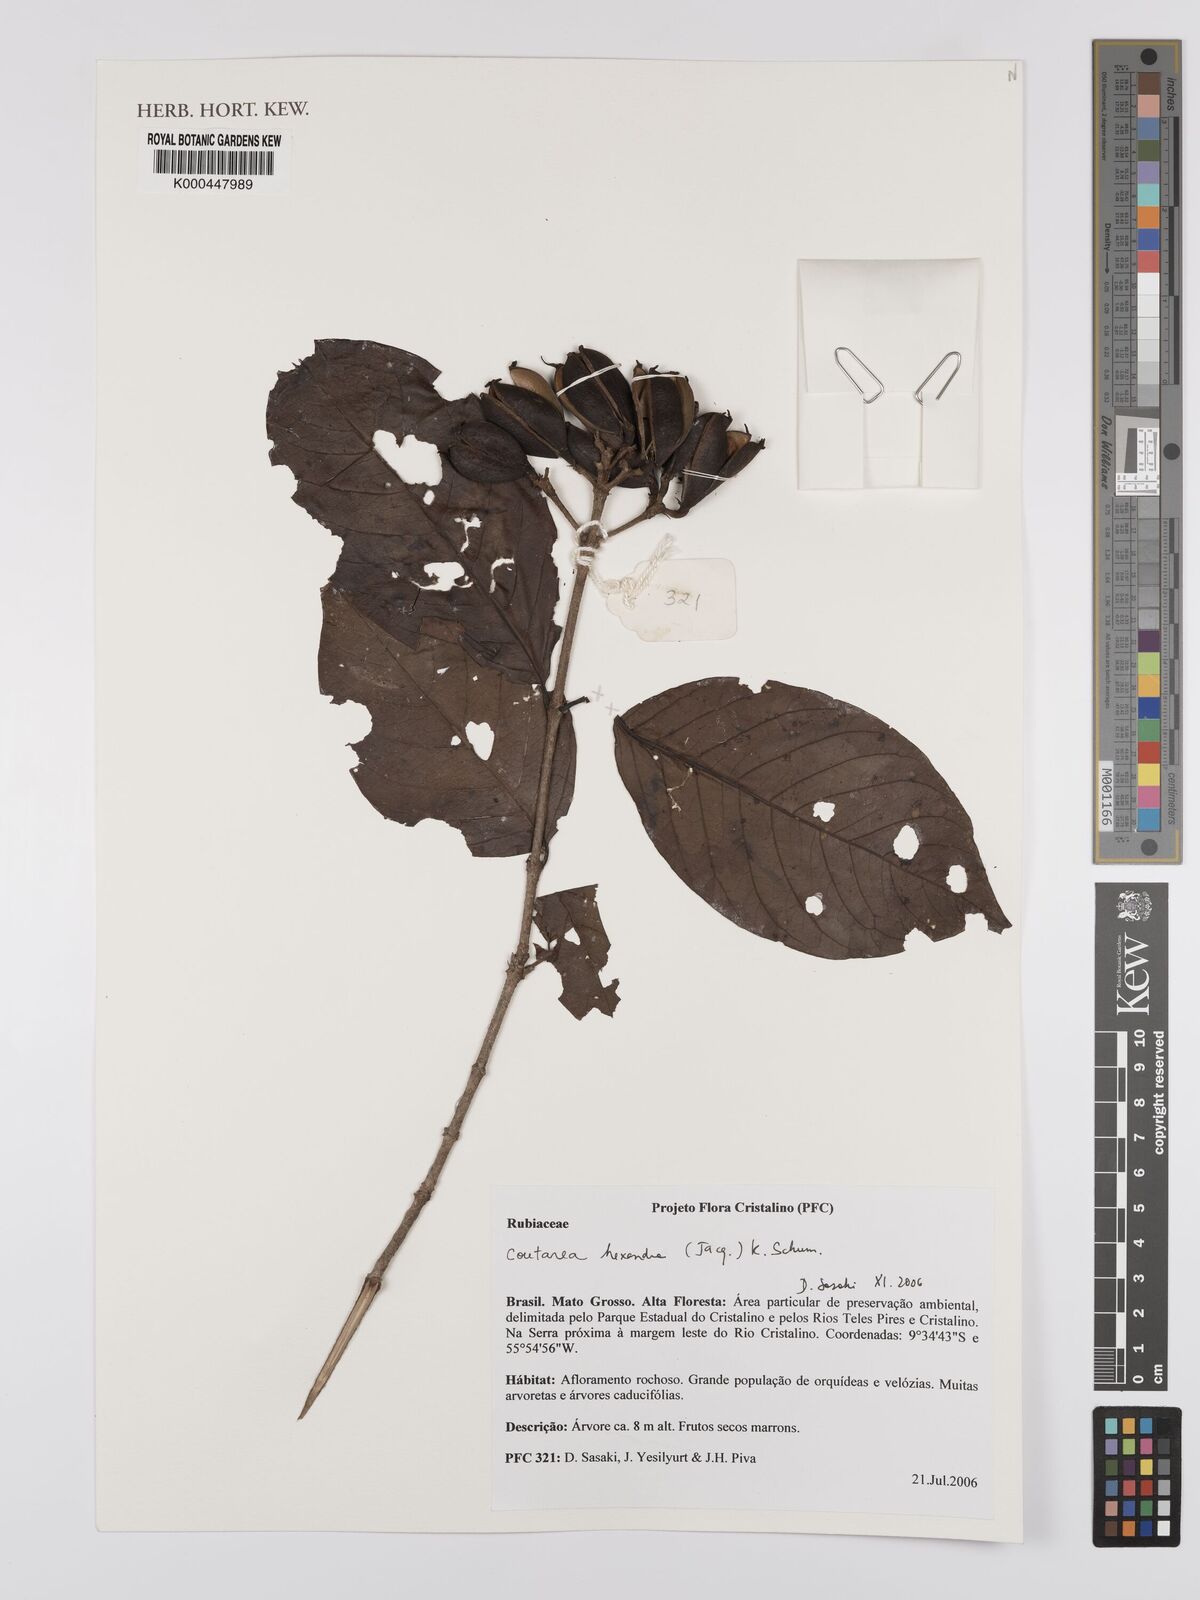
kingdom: Plantae
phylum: Tracheophyta
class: Magnoliopsida
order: Gentianales
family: Rubiaceae
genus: Coutarea
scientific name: Coutarea hexandra
